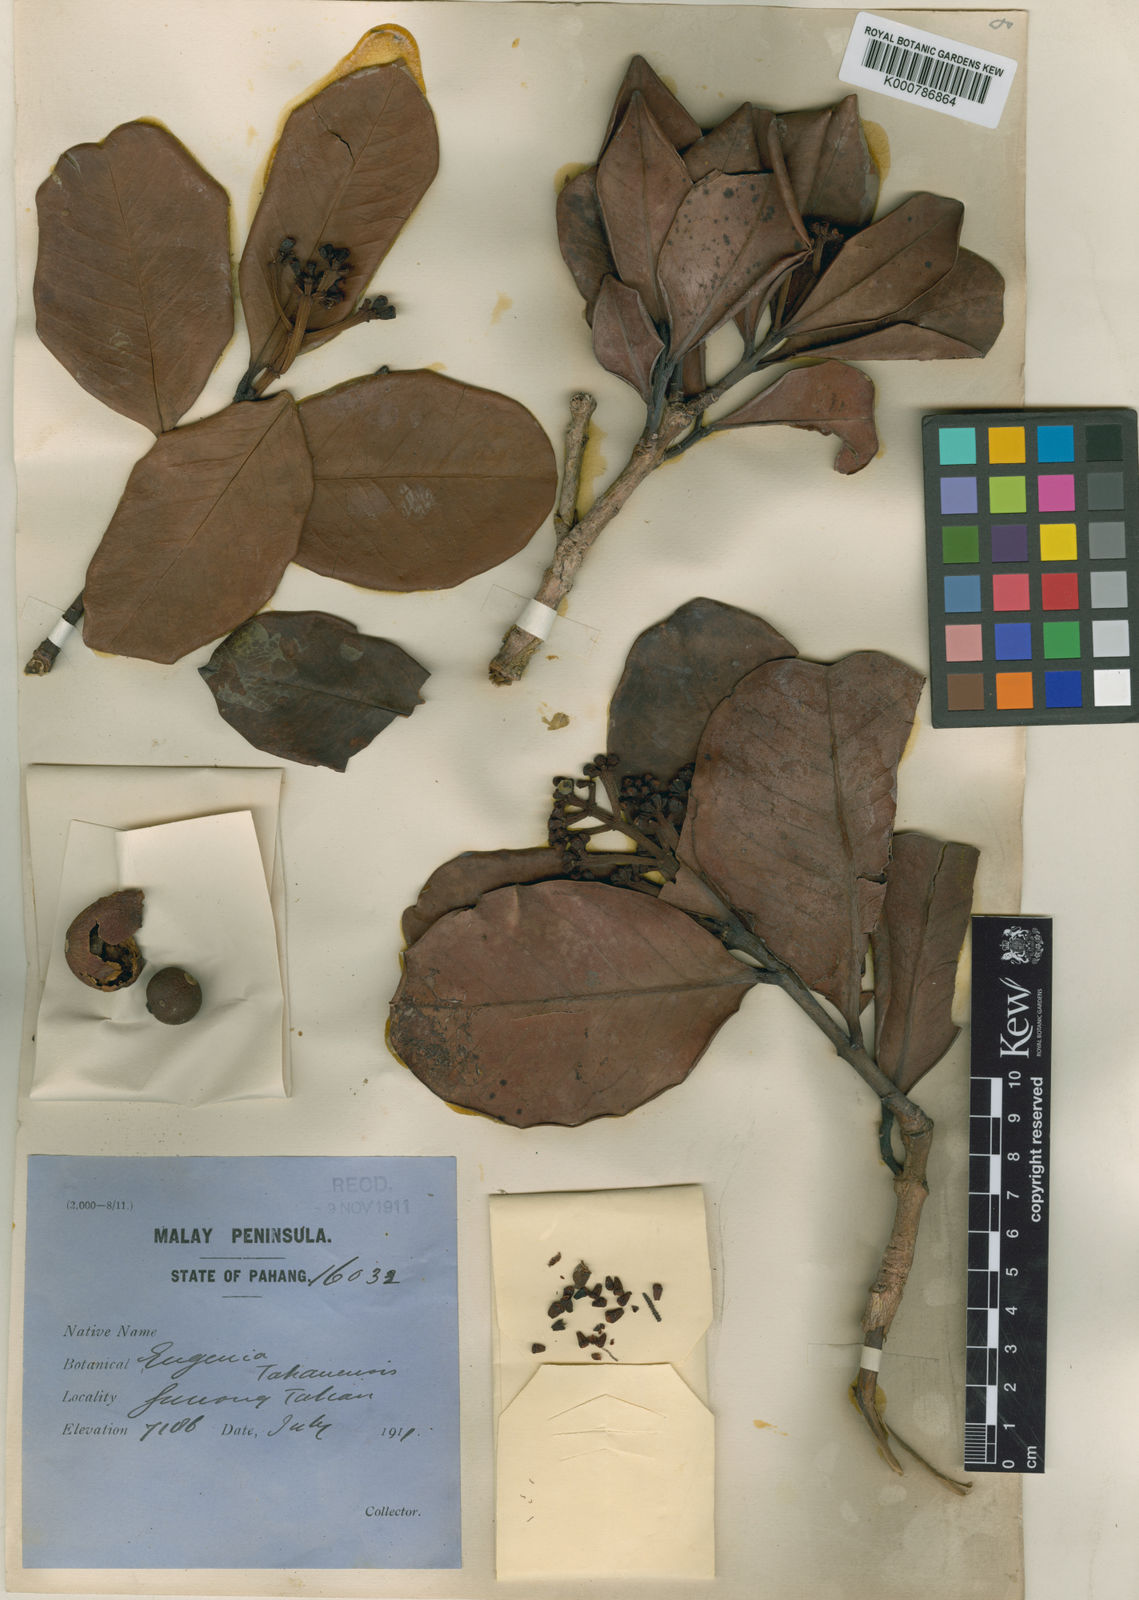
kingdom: Plantae
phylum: Tracheophyta
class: Magnoliopsida
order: Myrtales
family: Myrtaceae
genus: Syzygium
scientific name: Syzygium tahanense
